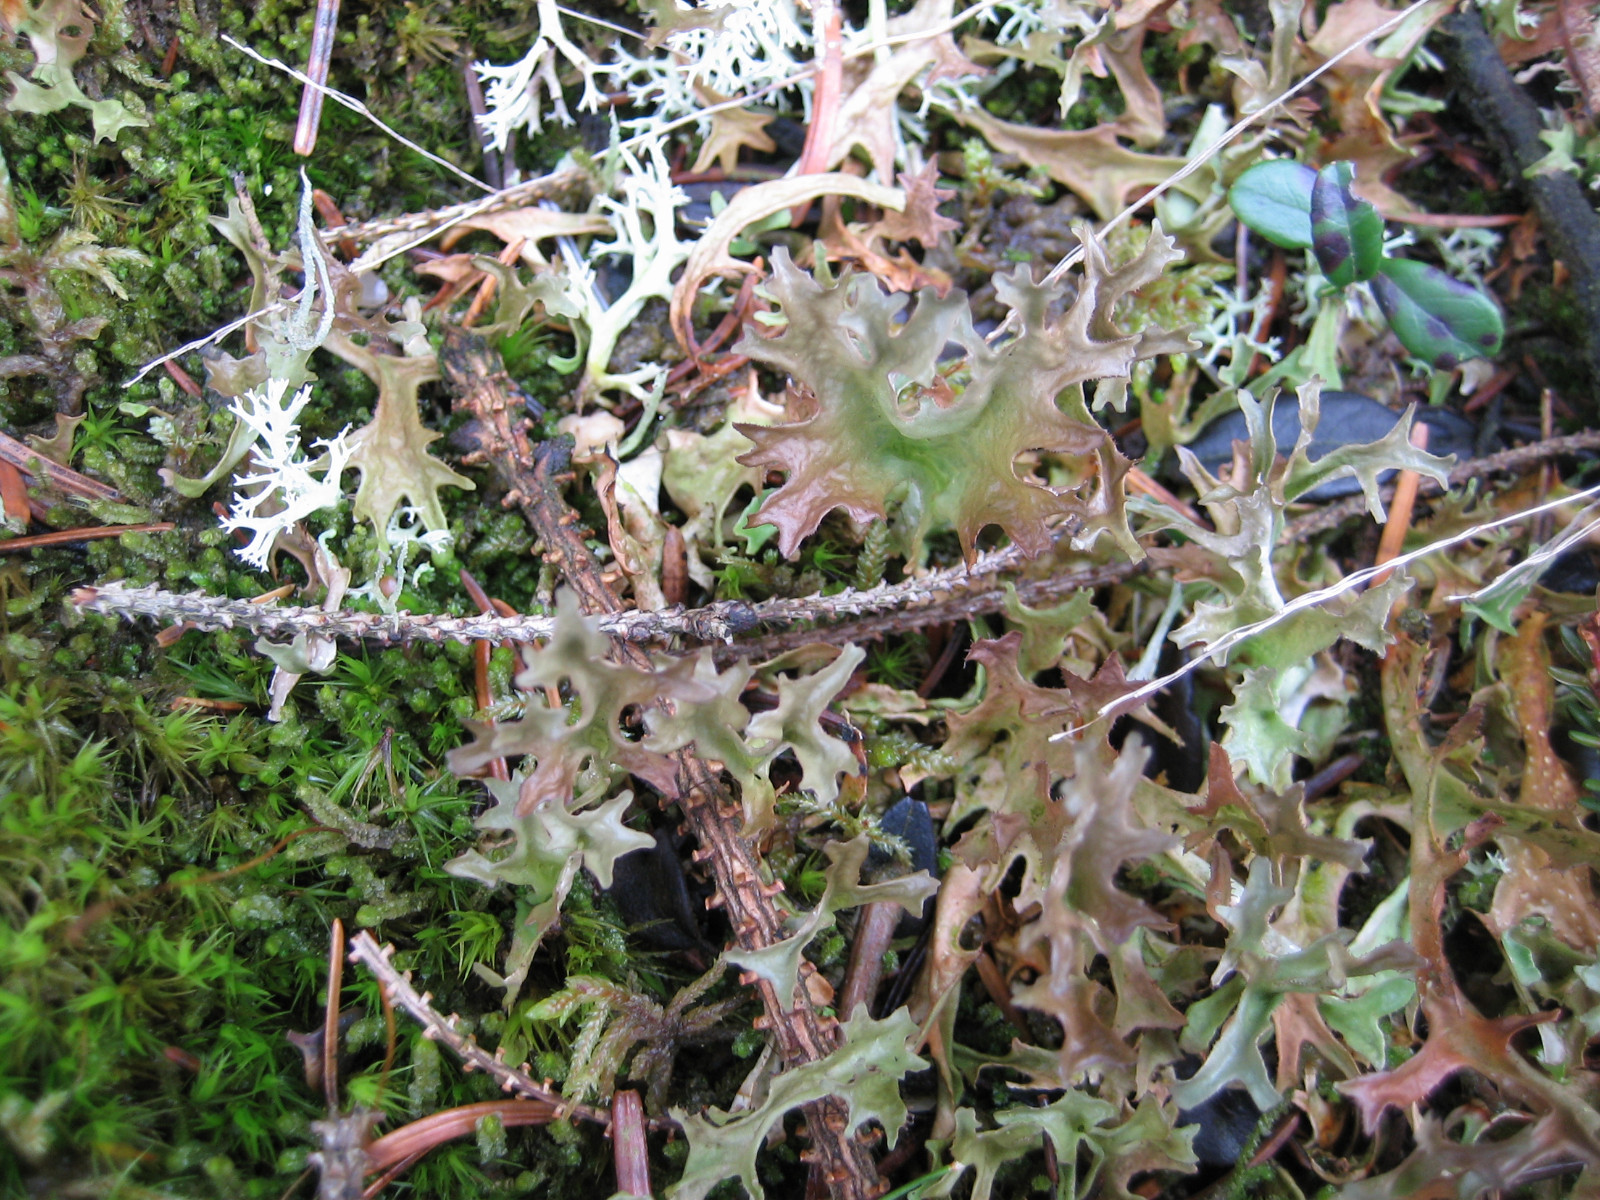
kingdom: Fungi
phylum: Ascomycota
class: Lecanoromycetes
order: Lecanorales
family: Parmeliaceae
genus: Cetraria
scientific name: Cetraria islandica
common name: islandsk kruslav
